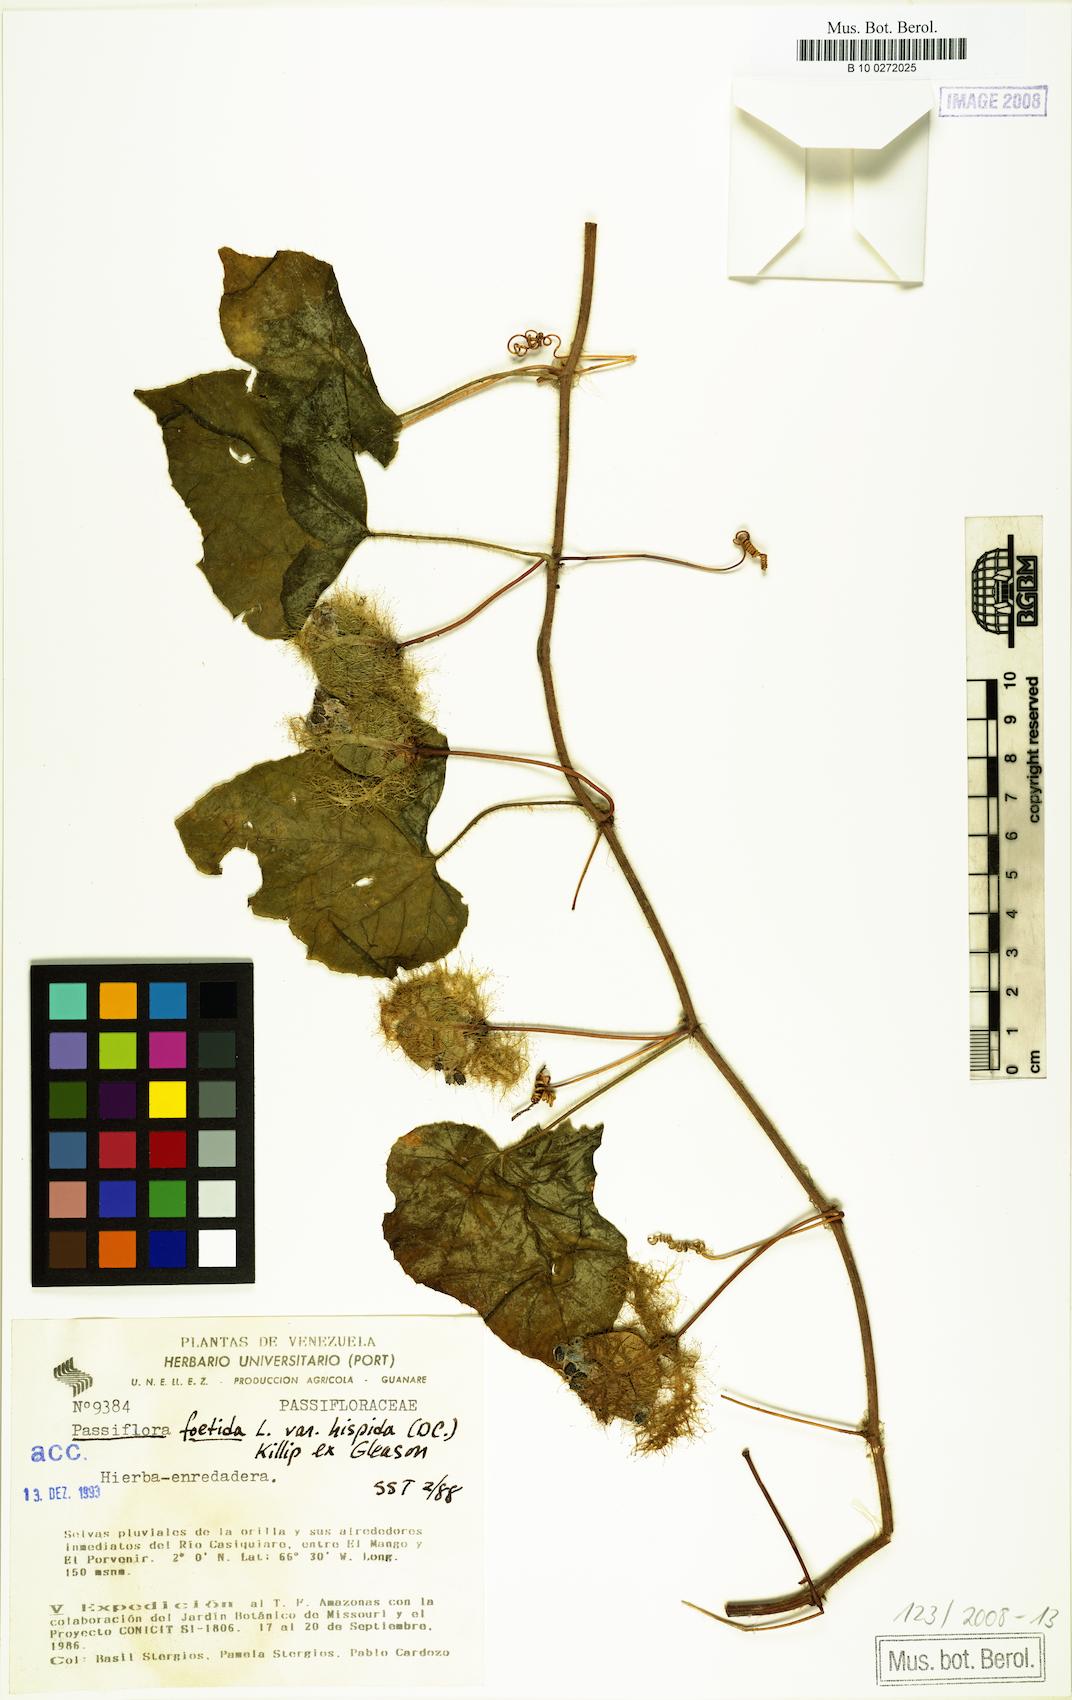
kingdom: Plantae
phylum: Tracheophyta
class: Magnoliopsida
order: Malpighiales
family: Passifloraceae
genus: Passiflora
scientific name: Passiflora vesicaria
